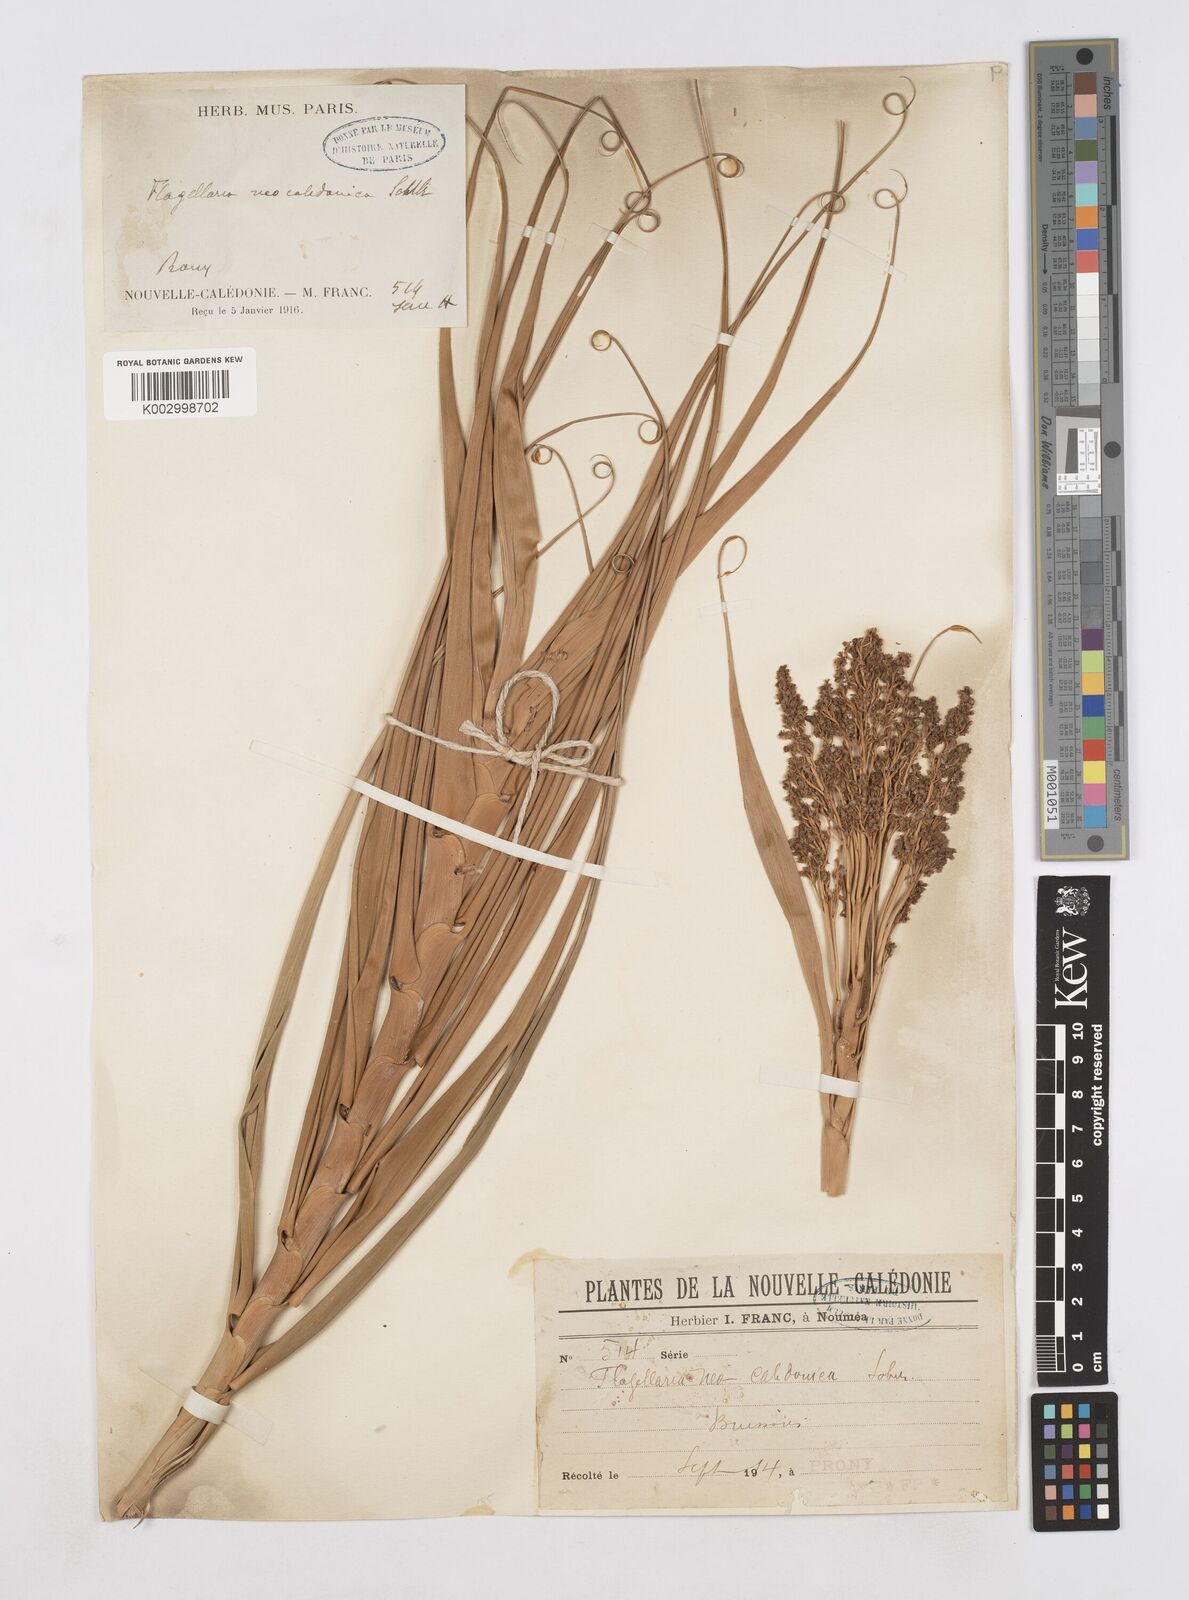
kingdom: Plantae
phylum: Tracheophyta
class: Liliopsida
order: Poales
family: Flagellariaceae
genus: Flagellaria
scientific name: Flagellaria neocaledonica
